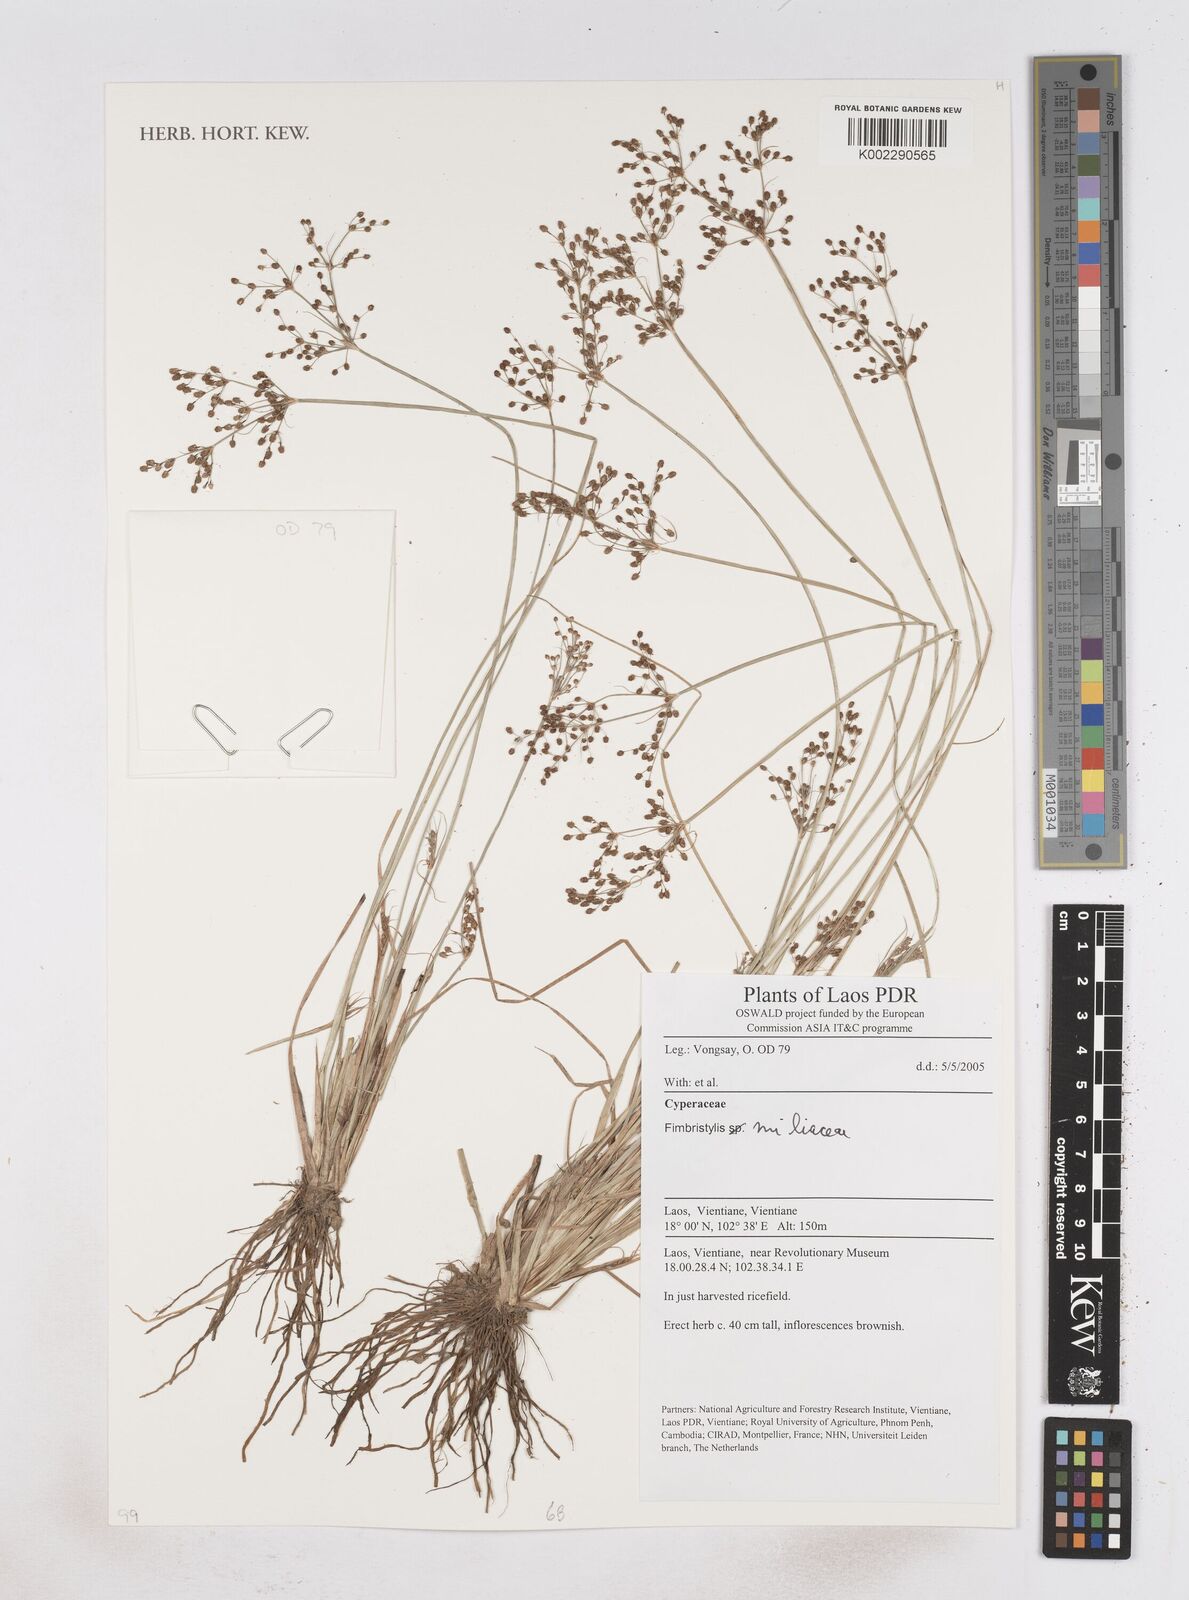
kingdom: Plantae
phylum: Tracheophyta
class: Liliopsida
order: Poales
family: Cyperaceae
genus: Fimbristylis
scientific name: Fimbristylis quinquangularis
